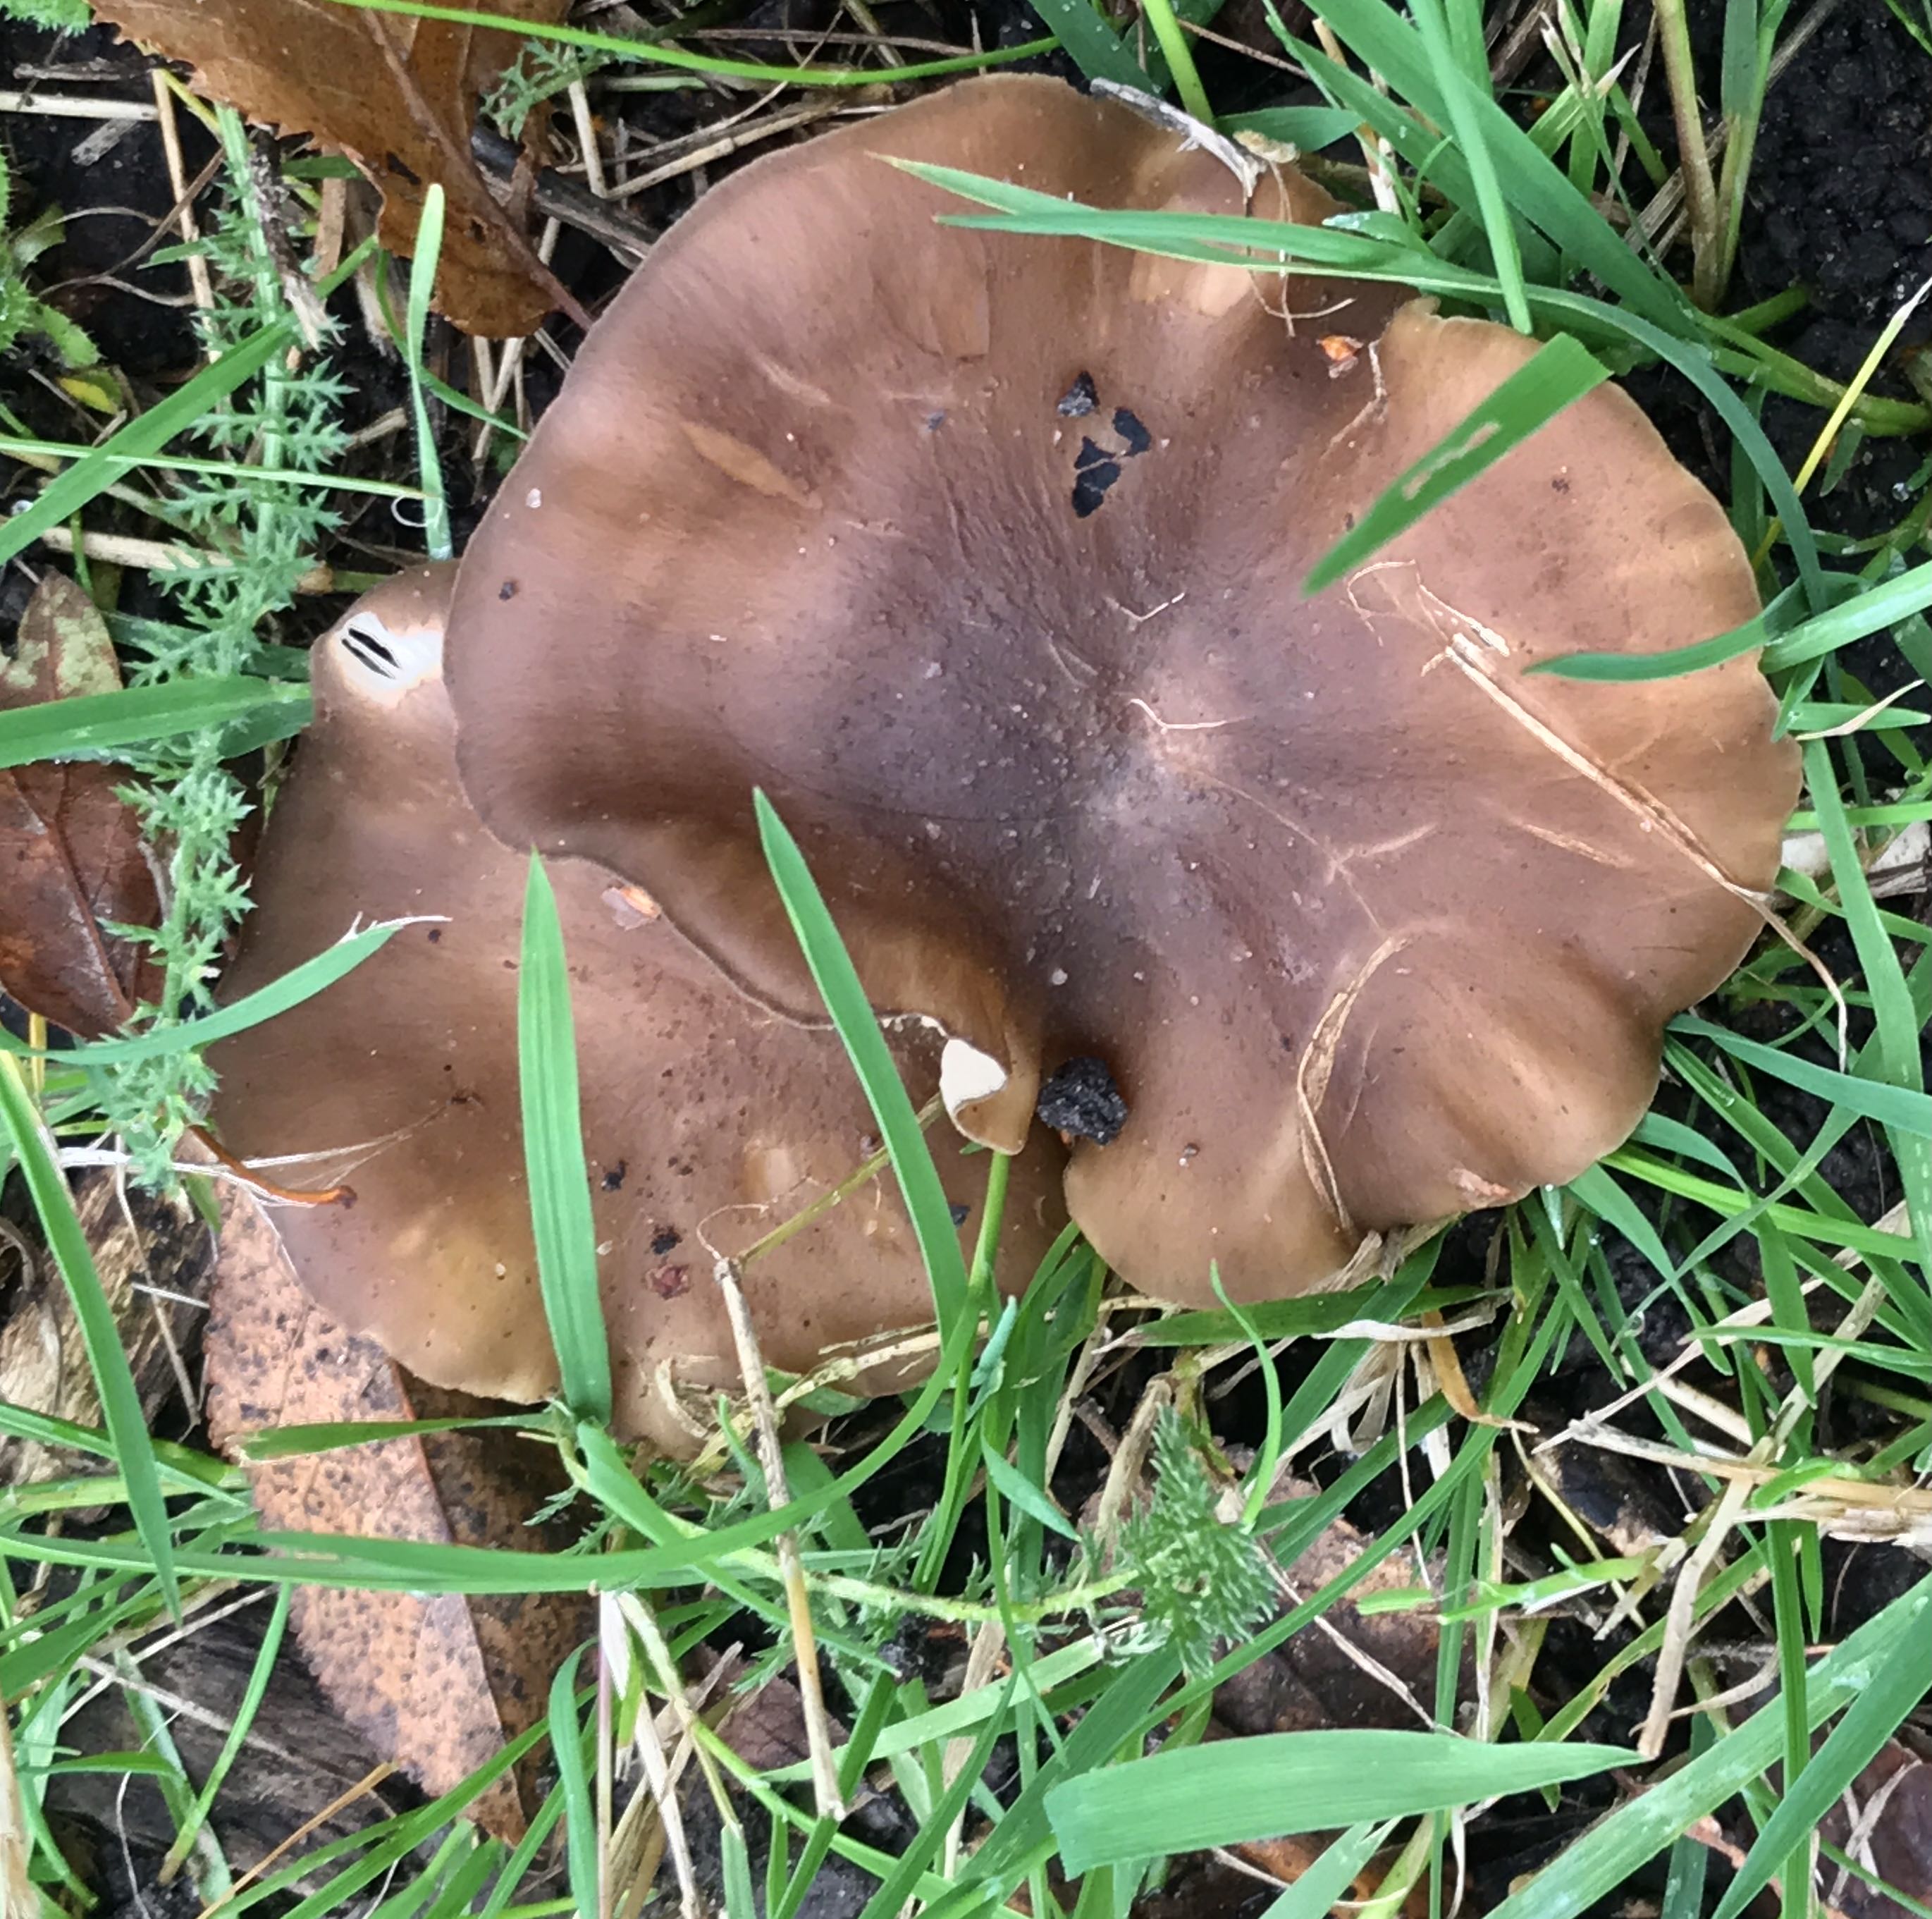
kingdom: Fungi
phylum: Basidiomycota
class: Agaricomycetes
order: Agaricales
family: Lyophyllaceae
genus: Lyophyllum
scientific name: Lyophyllum decastes
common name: røggrå gråblad
